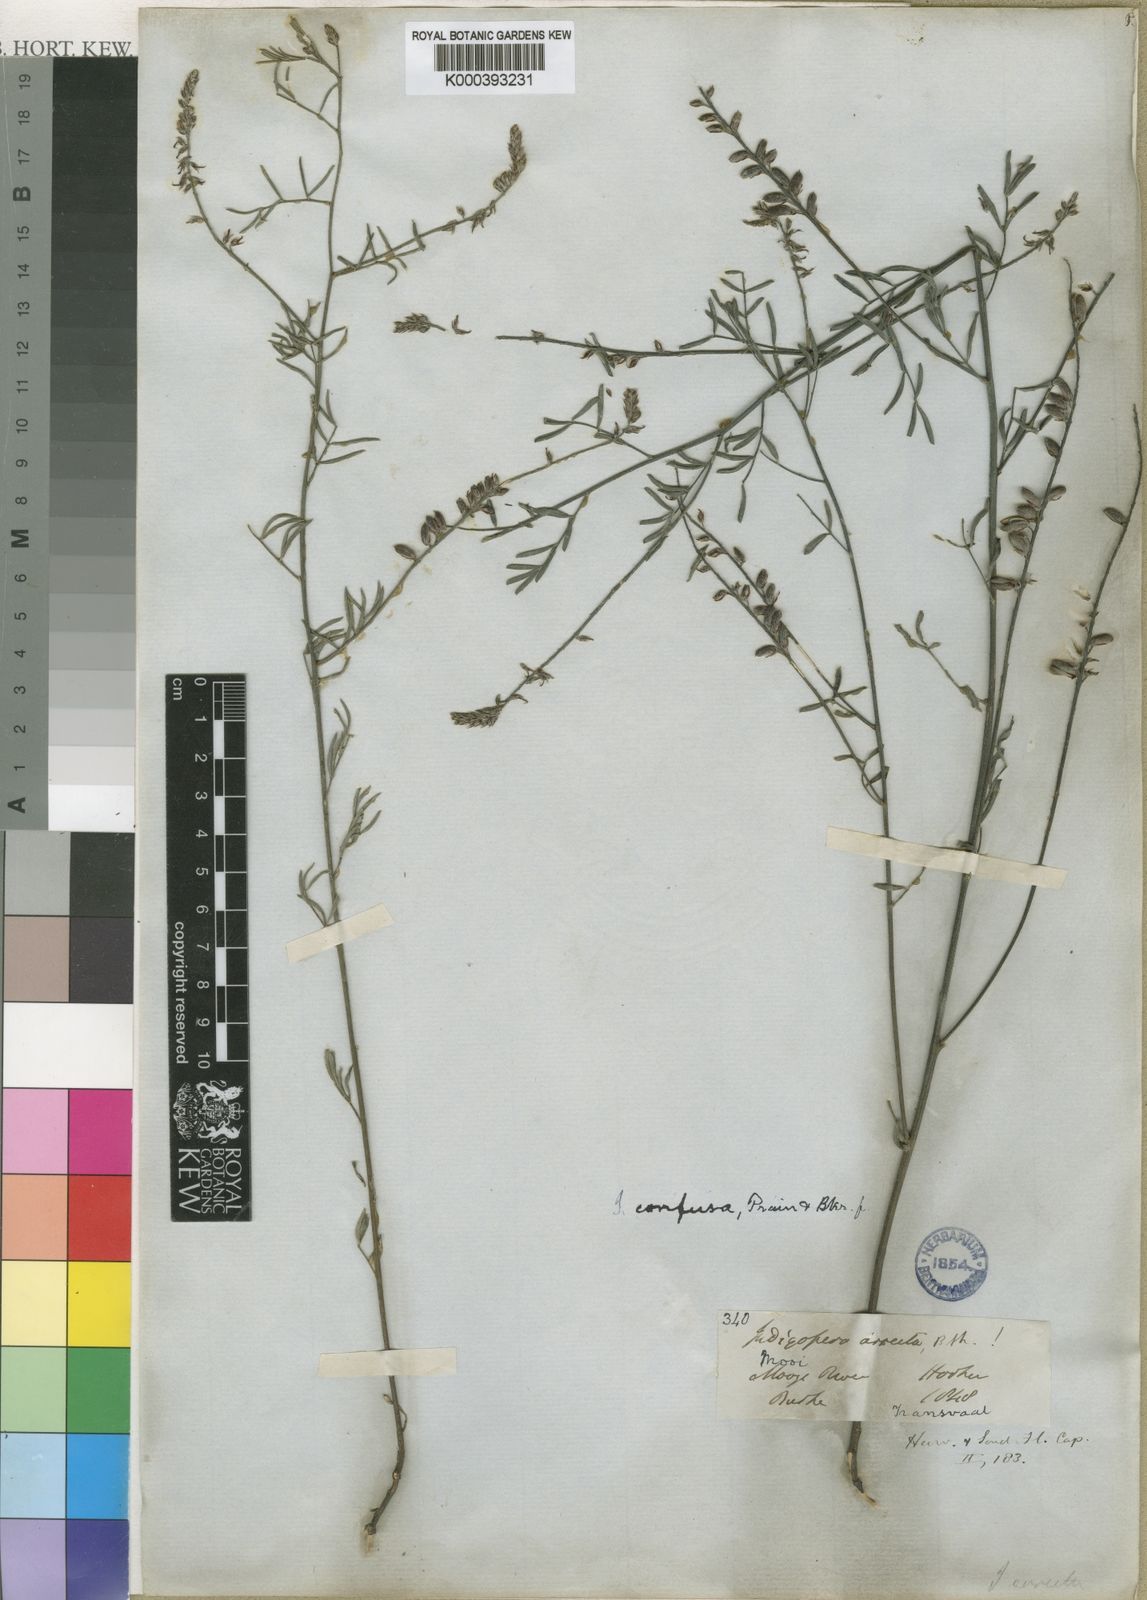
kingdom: Plantae
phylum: Tracheophyta
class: Magnoliopsida
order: Fabales
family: Fabaceae
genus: Indigofera
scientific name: Indigofera pretoriana
